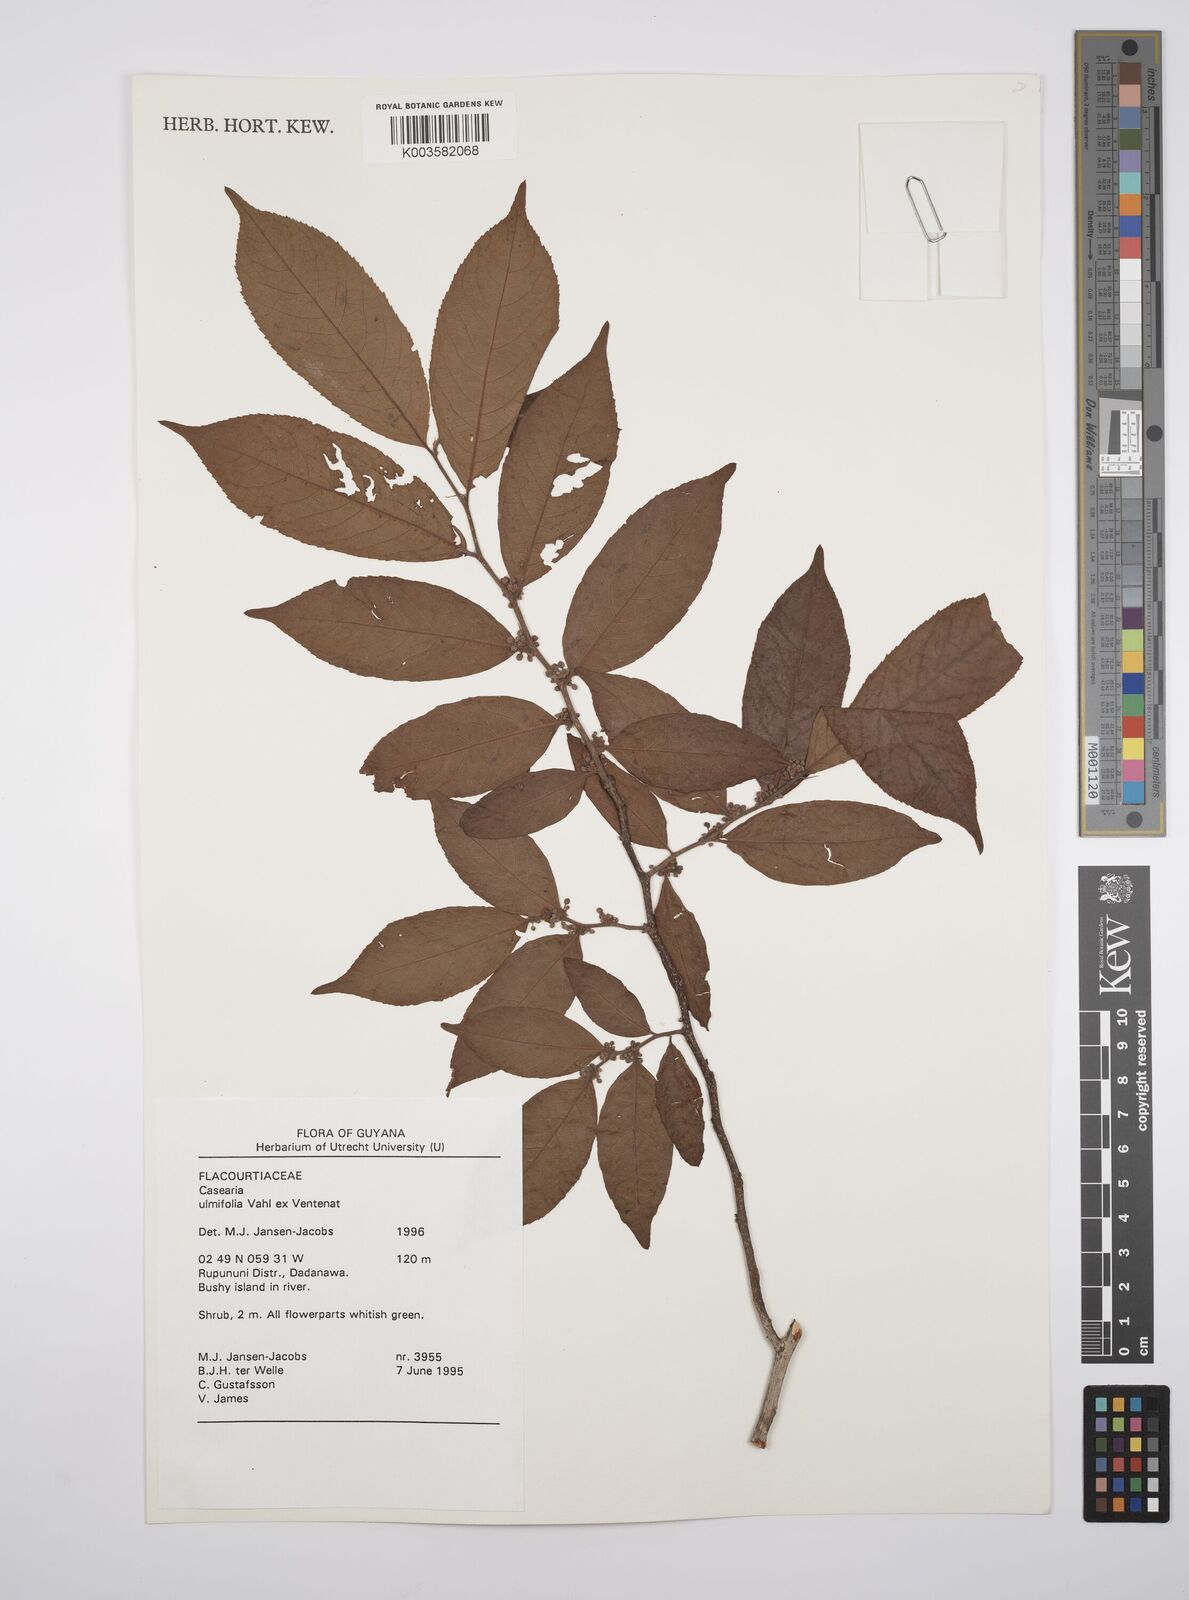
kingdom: Plantae
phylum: Tracheophyta
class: Magnoliopsida
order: Malpighiales
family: Salicaceae
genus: Casearia
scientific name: Casearia ulmifolia
